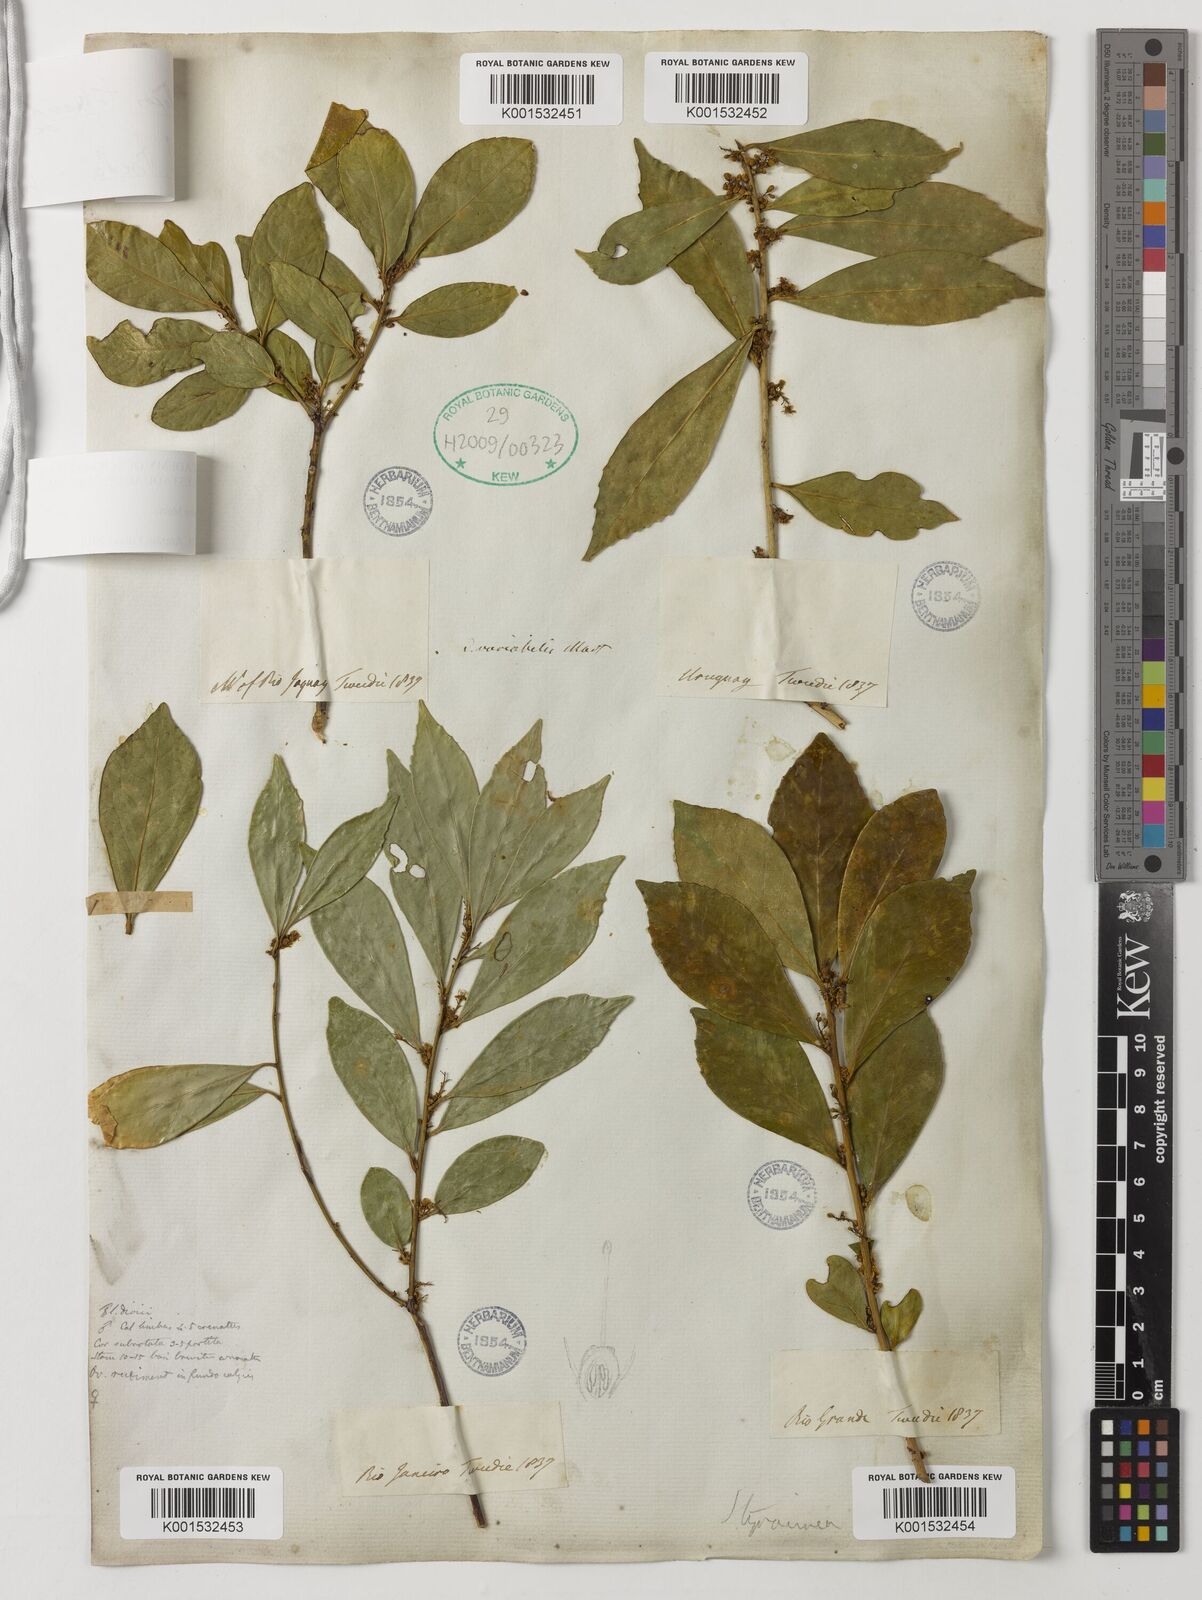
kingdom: Plantae
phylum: Tracheophyta
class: Magnoliopsida
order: Ericales
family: Symplocaceae
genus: Symplocos
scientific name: Symplocos tetrandra
